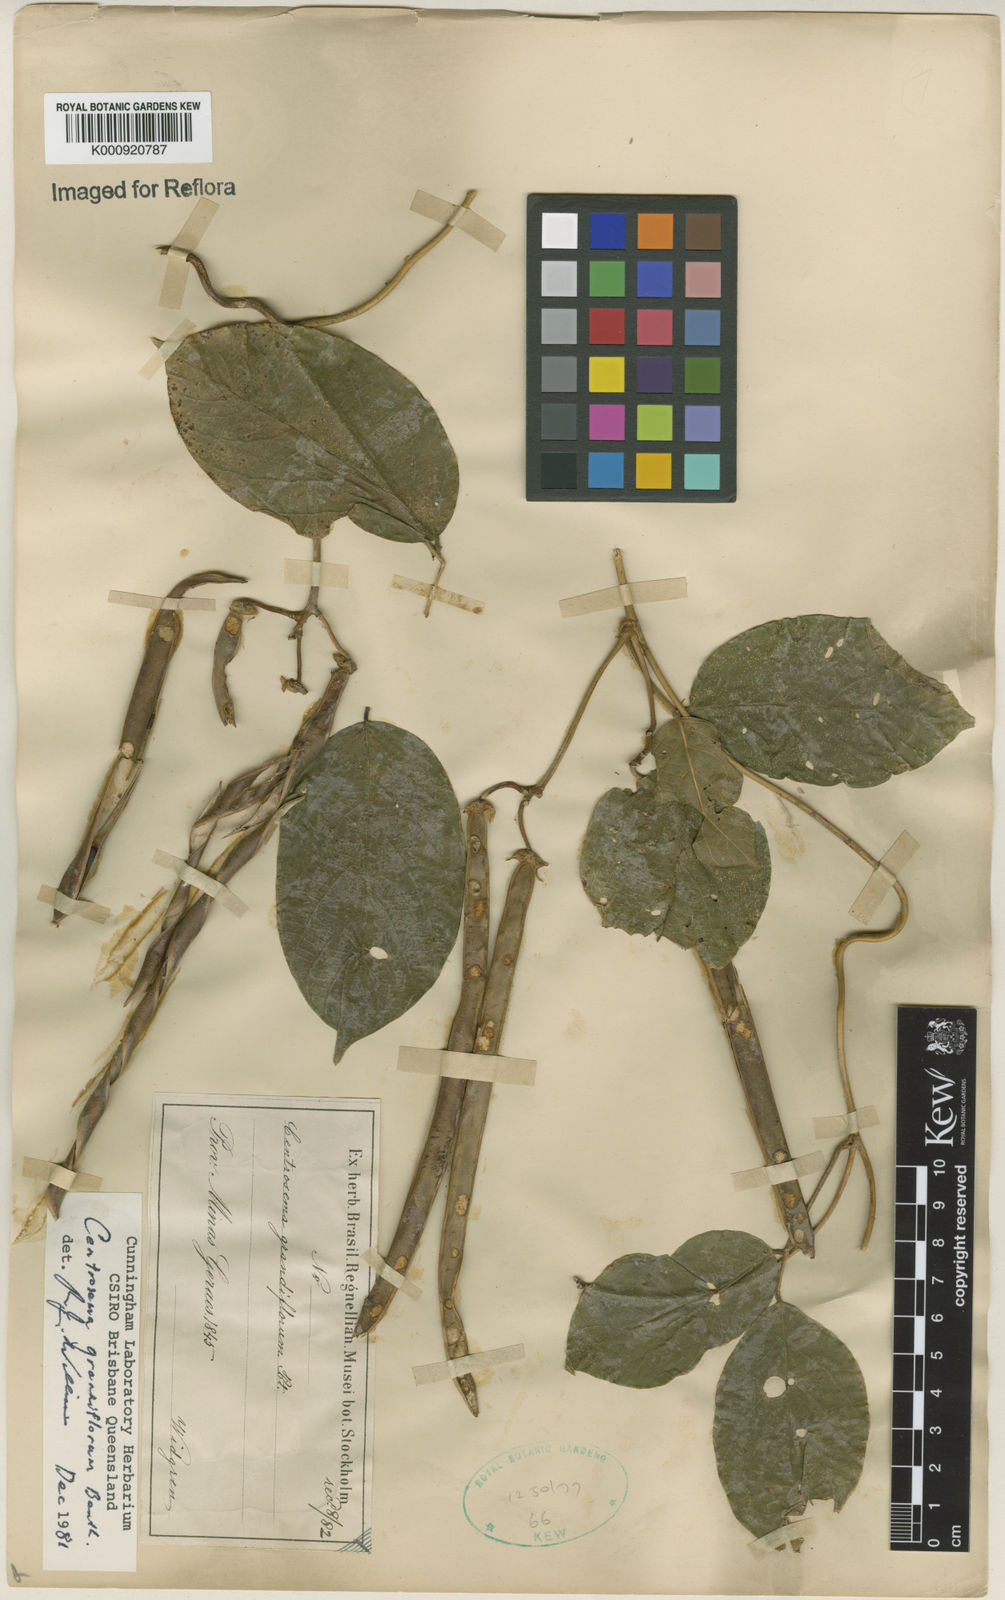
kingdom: Plantae
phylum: Tracheophyta
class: Magnoliopsida
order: Fabales
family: Fabaceae
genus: Centrosema
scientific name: Centrosema grandiflorum
